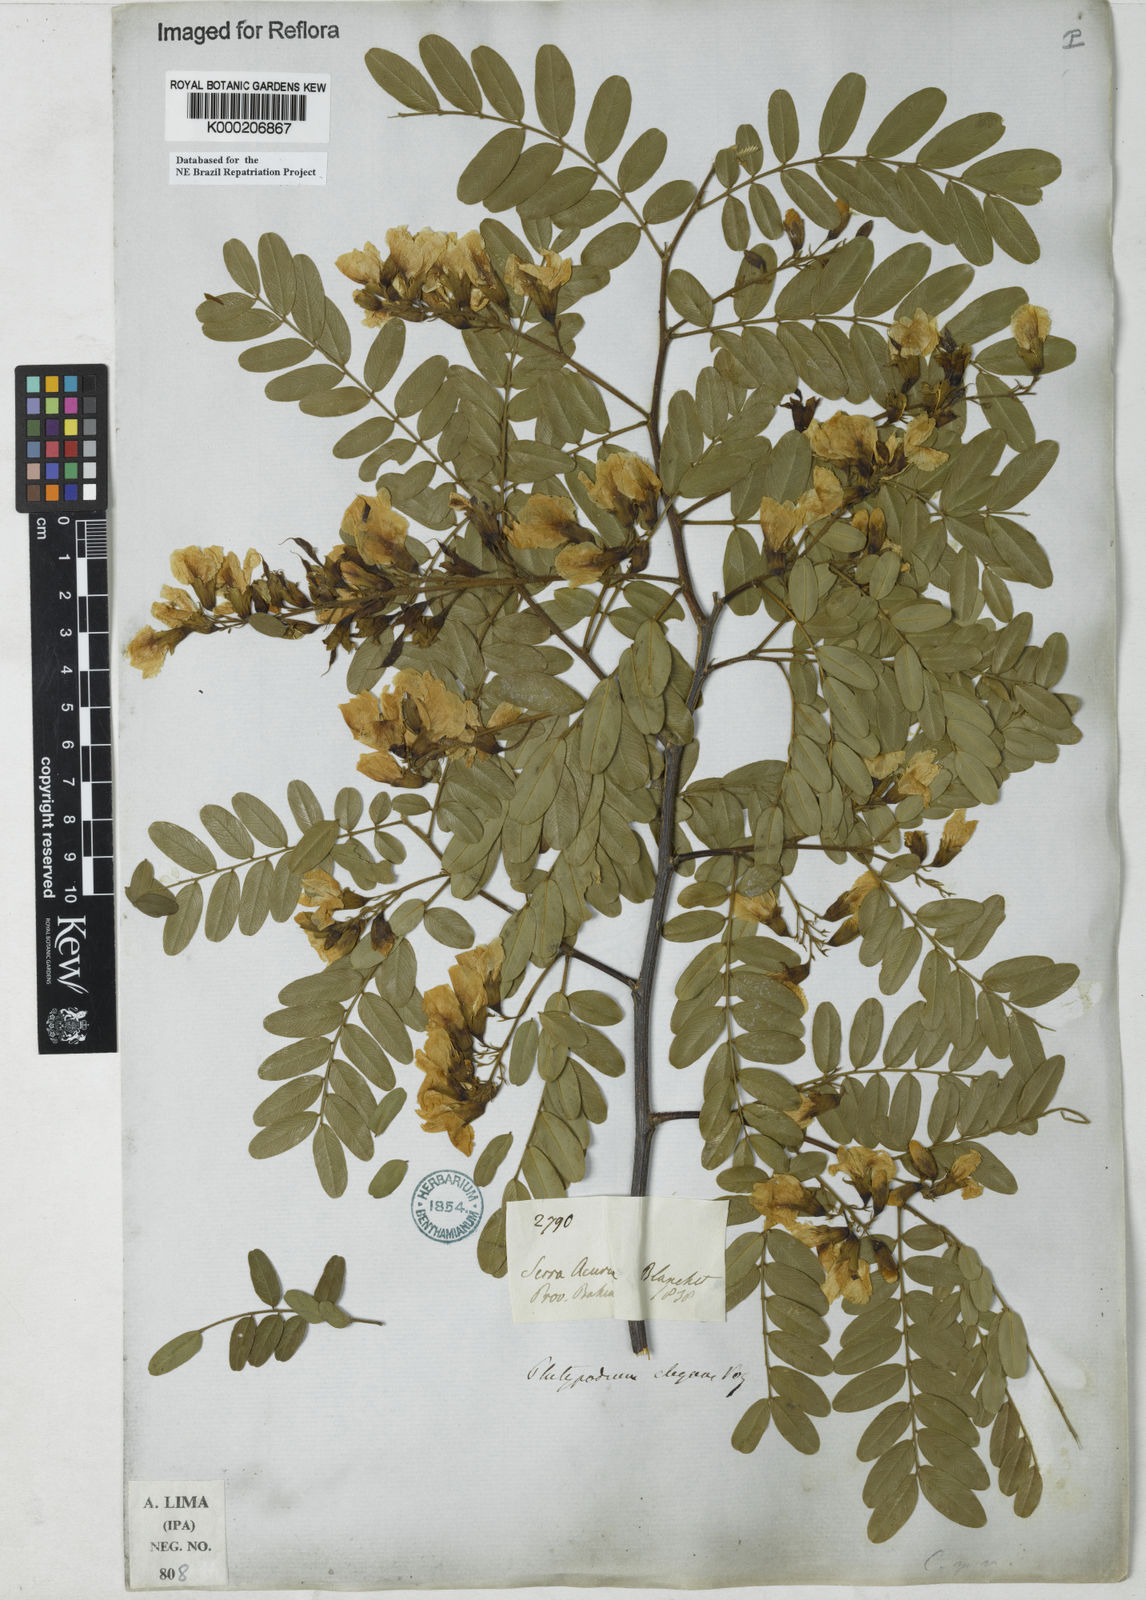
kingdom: Plantae
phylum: Tracheophyta
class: Magnoliopsida
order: Fabales
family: Fabaceae
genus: Platypodium
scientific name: Platypodium elegans
